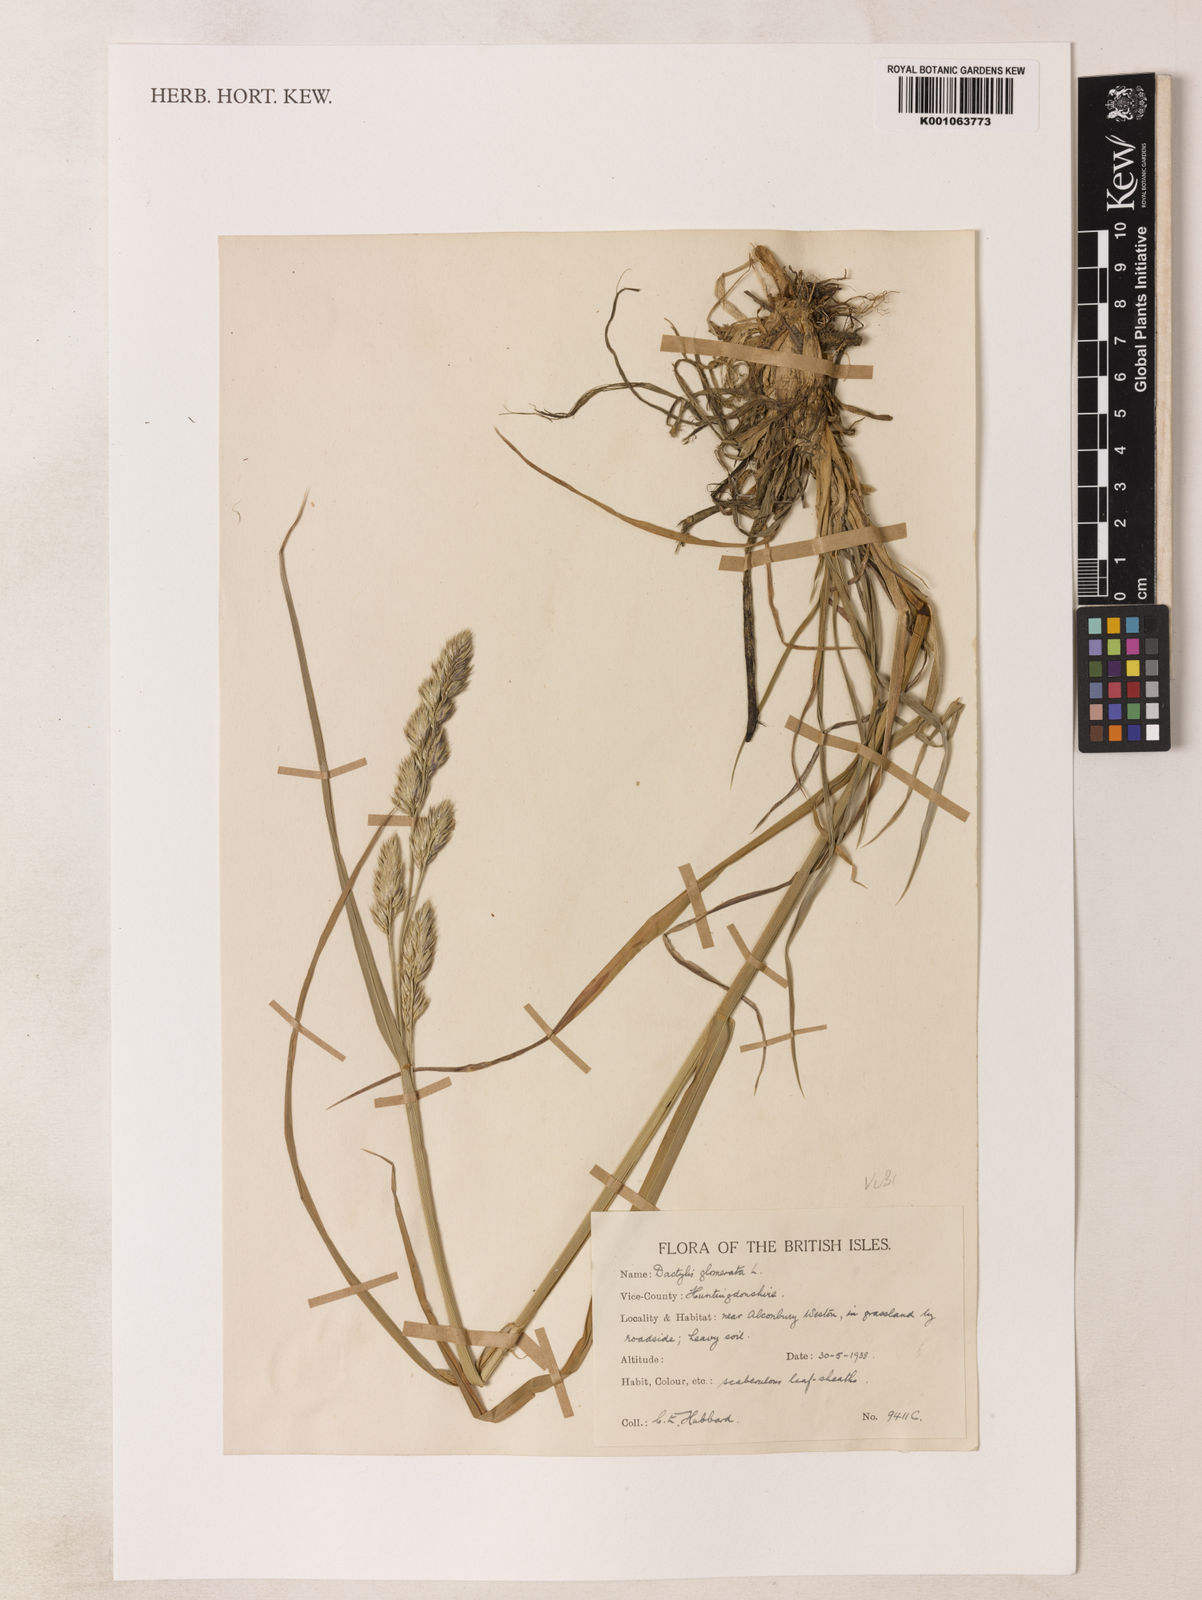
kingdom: Plantae
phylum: Tracheophyta
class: Liliopsida
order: Poales
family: Poaceae
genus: Dactylis
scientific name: Dactylis glomerata
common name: Orchardgrass
